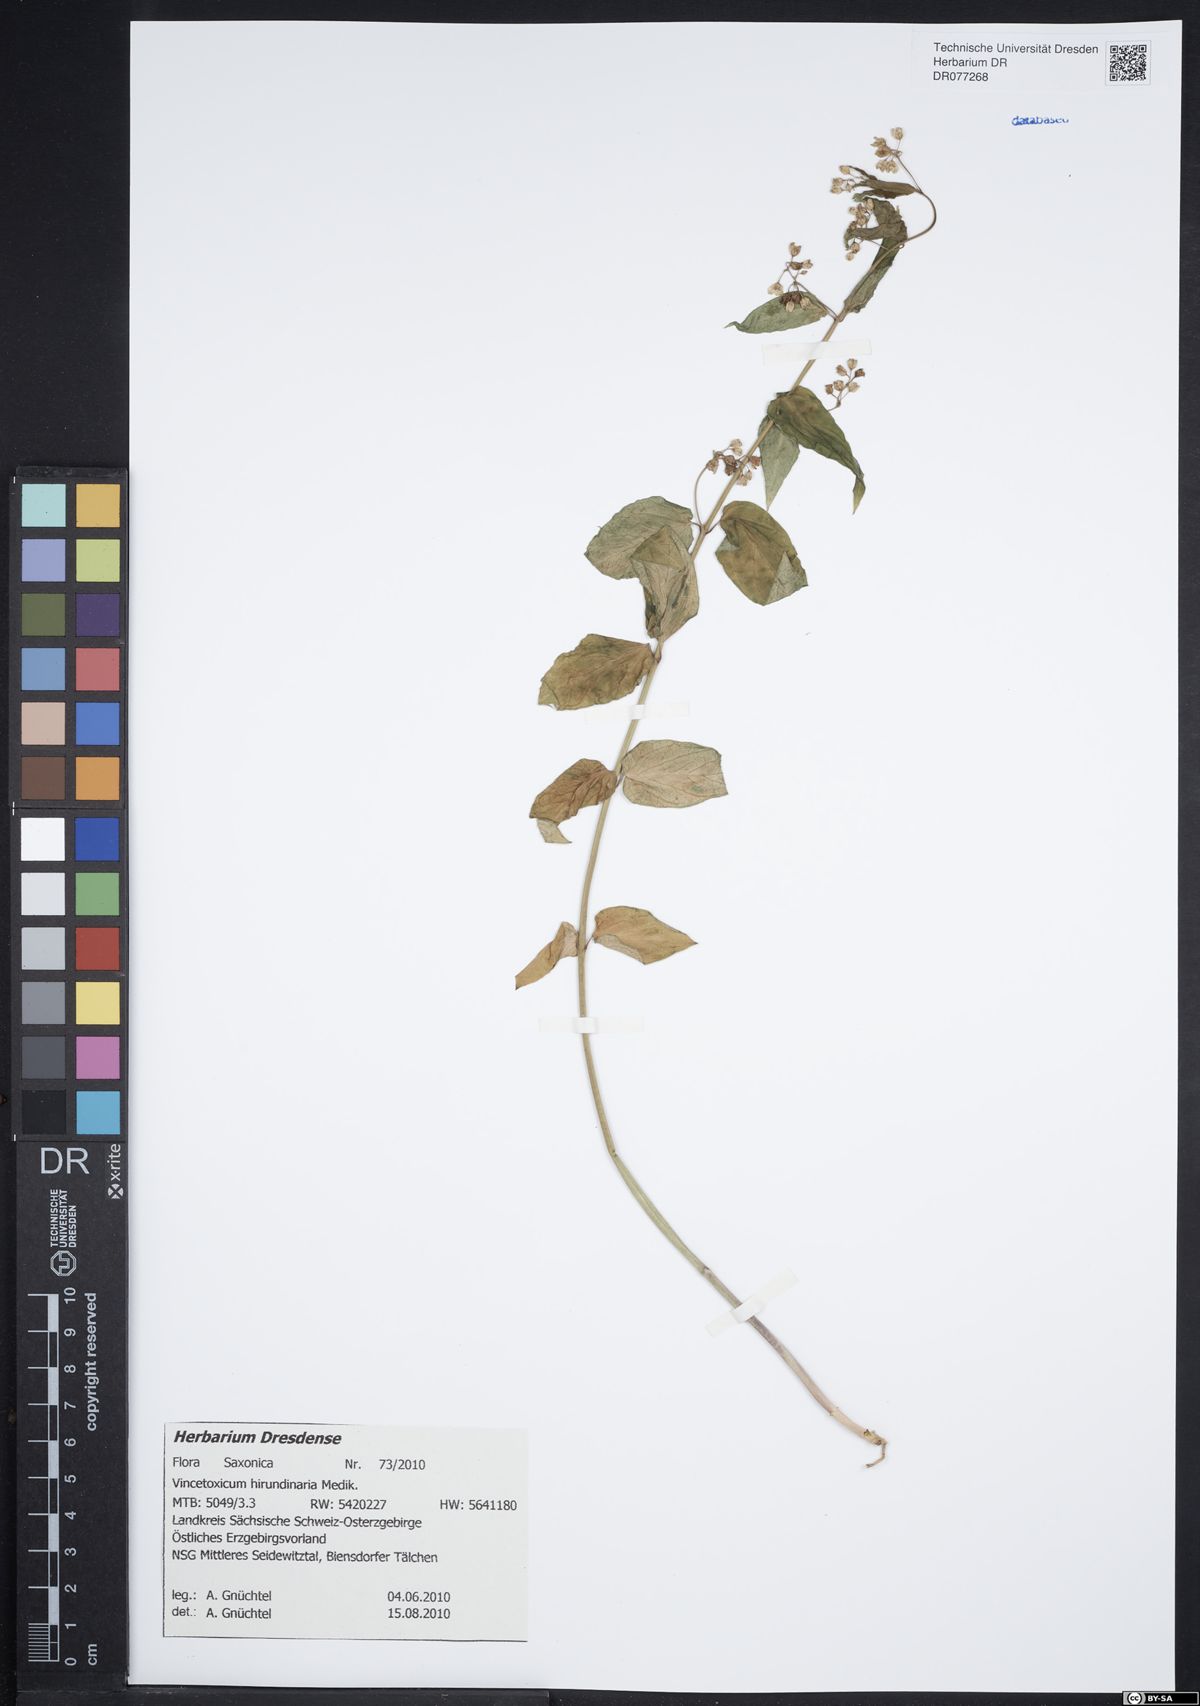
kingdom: Plantae
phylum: Tracheophyta
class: Magnoliopsida
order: Gentianales
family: Apocynaceae
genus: Vincetoxicum
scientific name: Vincetoxicum hirundinaria
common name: White swallowwort
